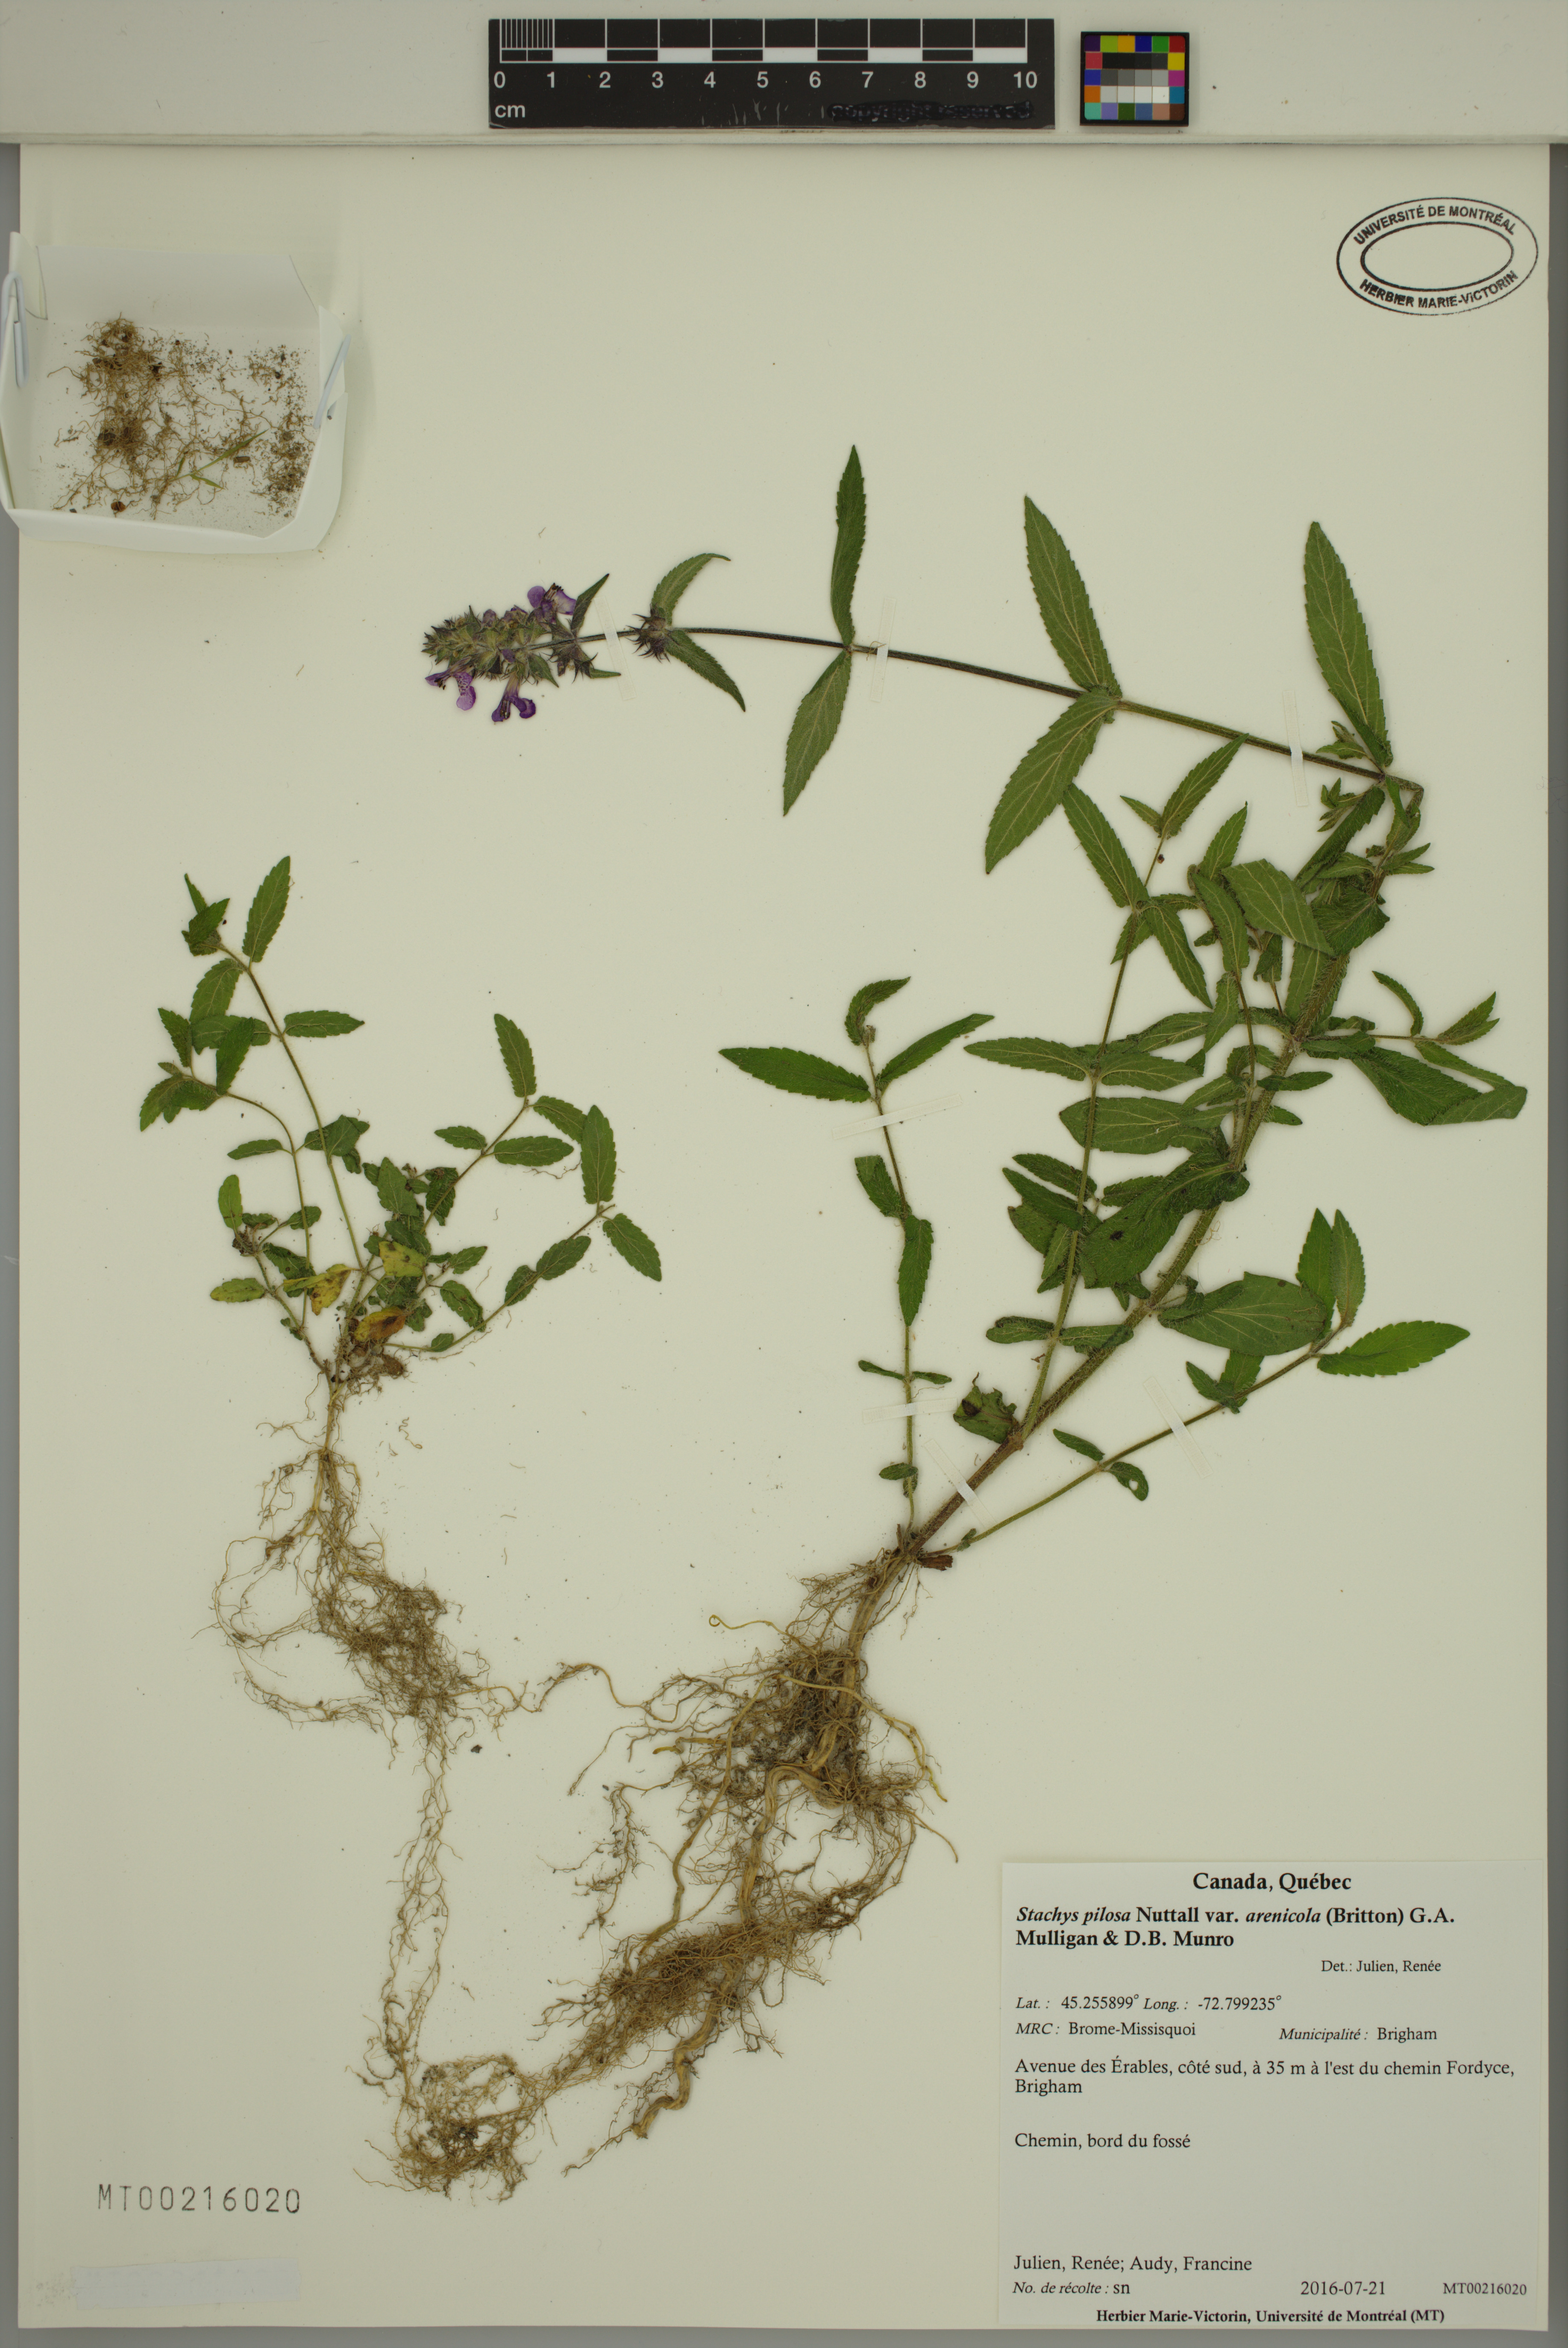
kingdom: Plantae
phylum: Tracheophyta
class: Magnoliopsida
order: Lamiales
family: Lamiaceae
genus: Stachys
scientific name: Stachys pilosa
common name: Hairy hedge-nettle
